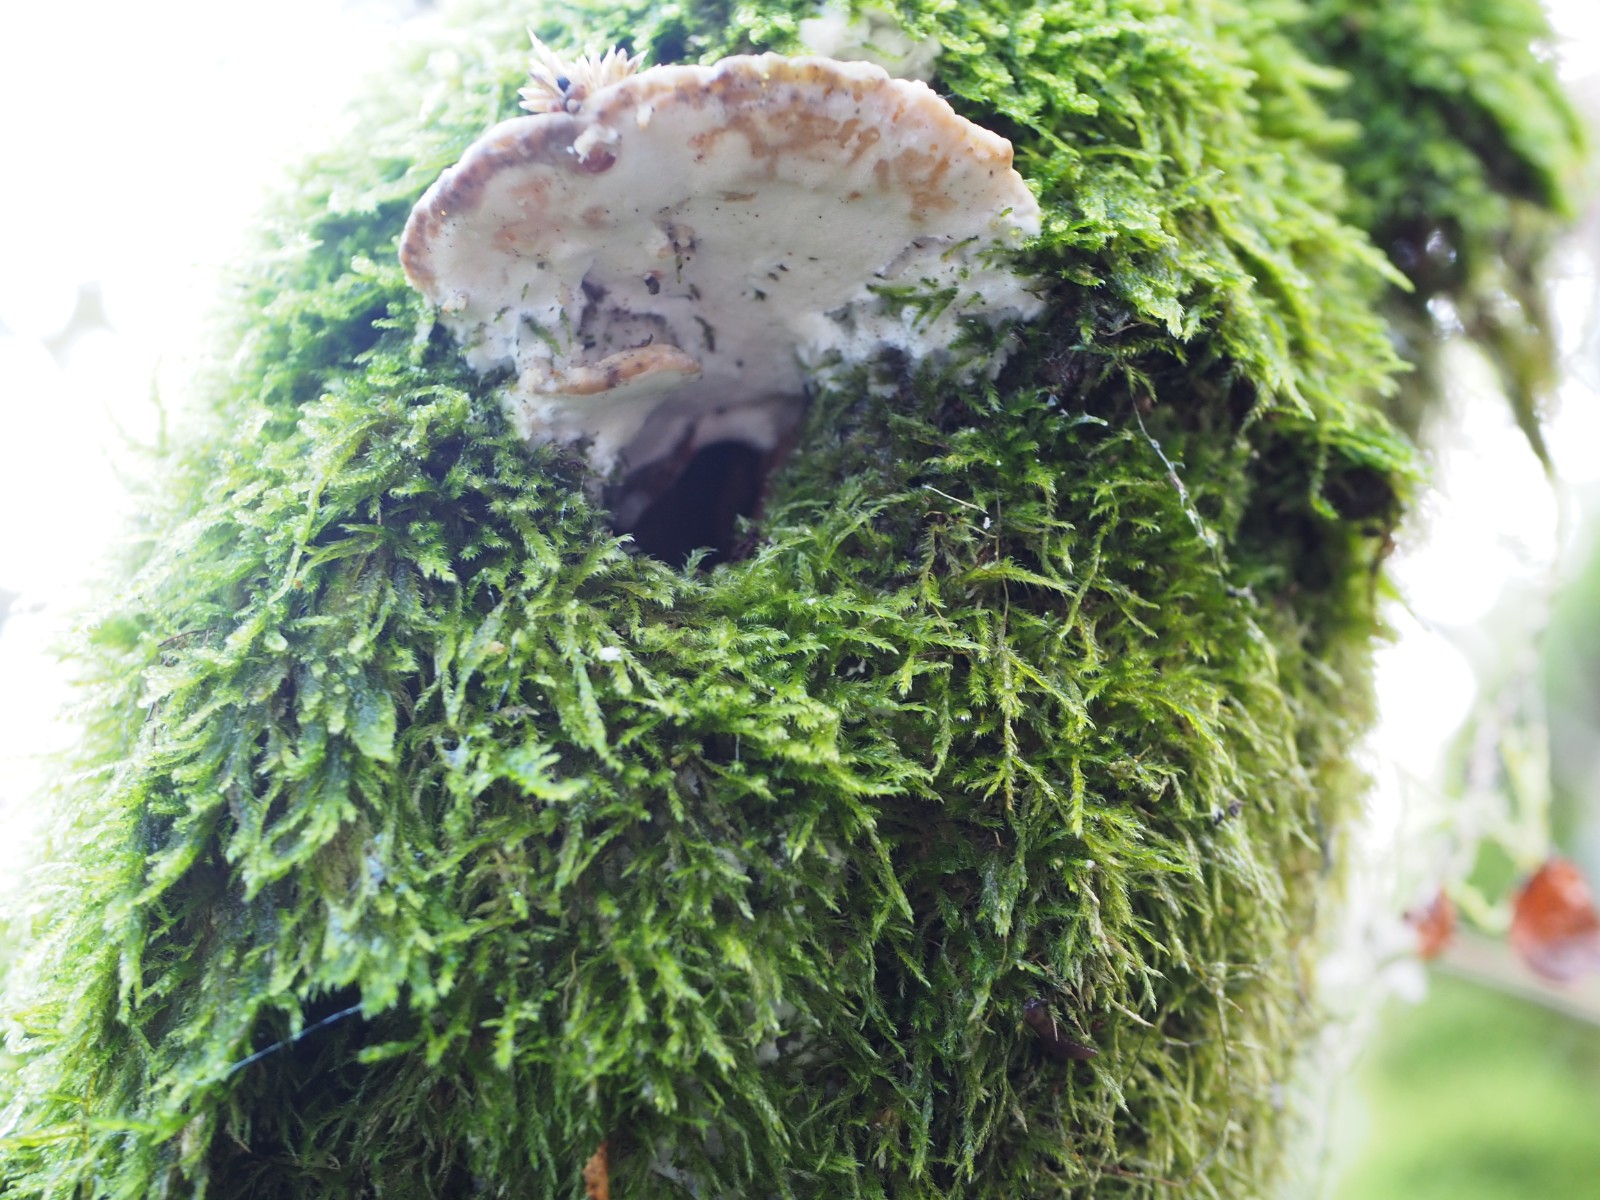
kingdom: Fungi
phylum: Basidiomycota
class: Agaricomycetes
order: Hymenochaetales
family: Oxyporaceae
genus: Oxyporus
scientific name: Oxyporus populinus
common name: sammenvokset trylleporesvamp
